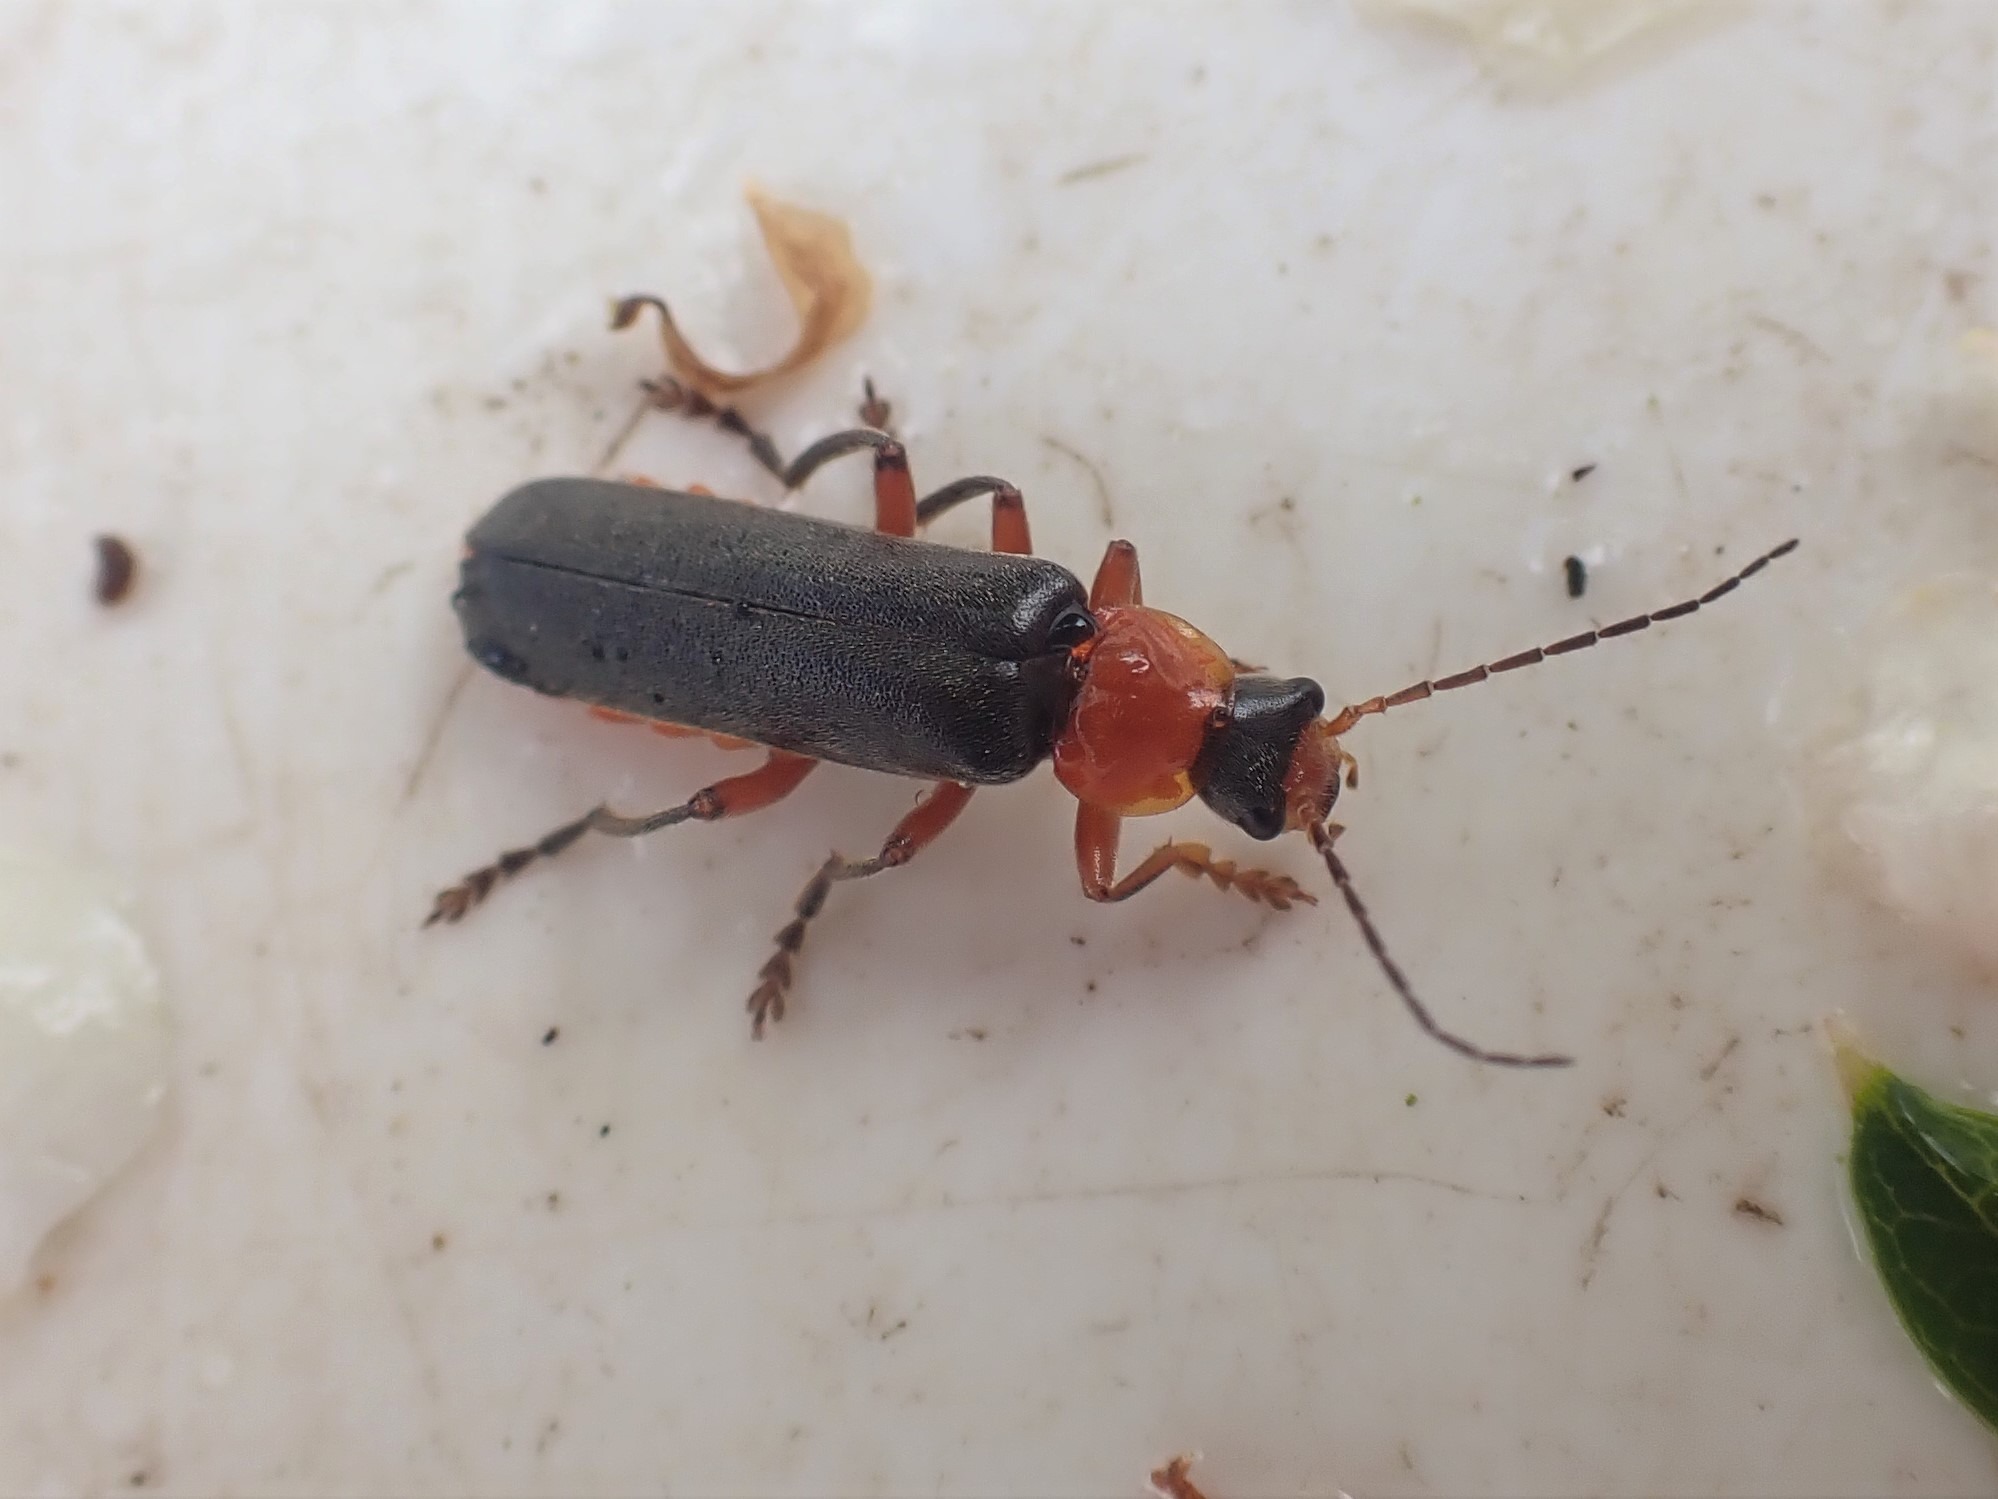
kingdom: Animalia
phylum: Arthropoda
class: Insecta
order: Coleoptera
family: Cantharidae
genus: Cantharis
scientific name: Cantharis pellucida
